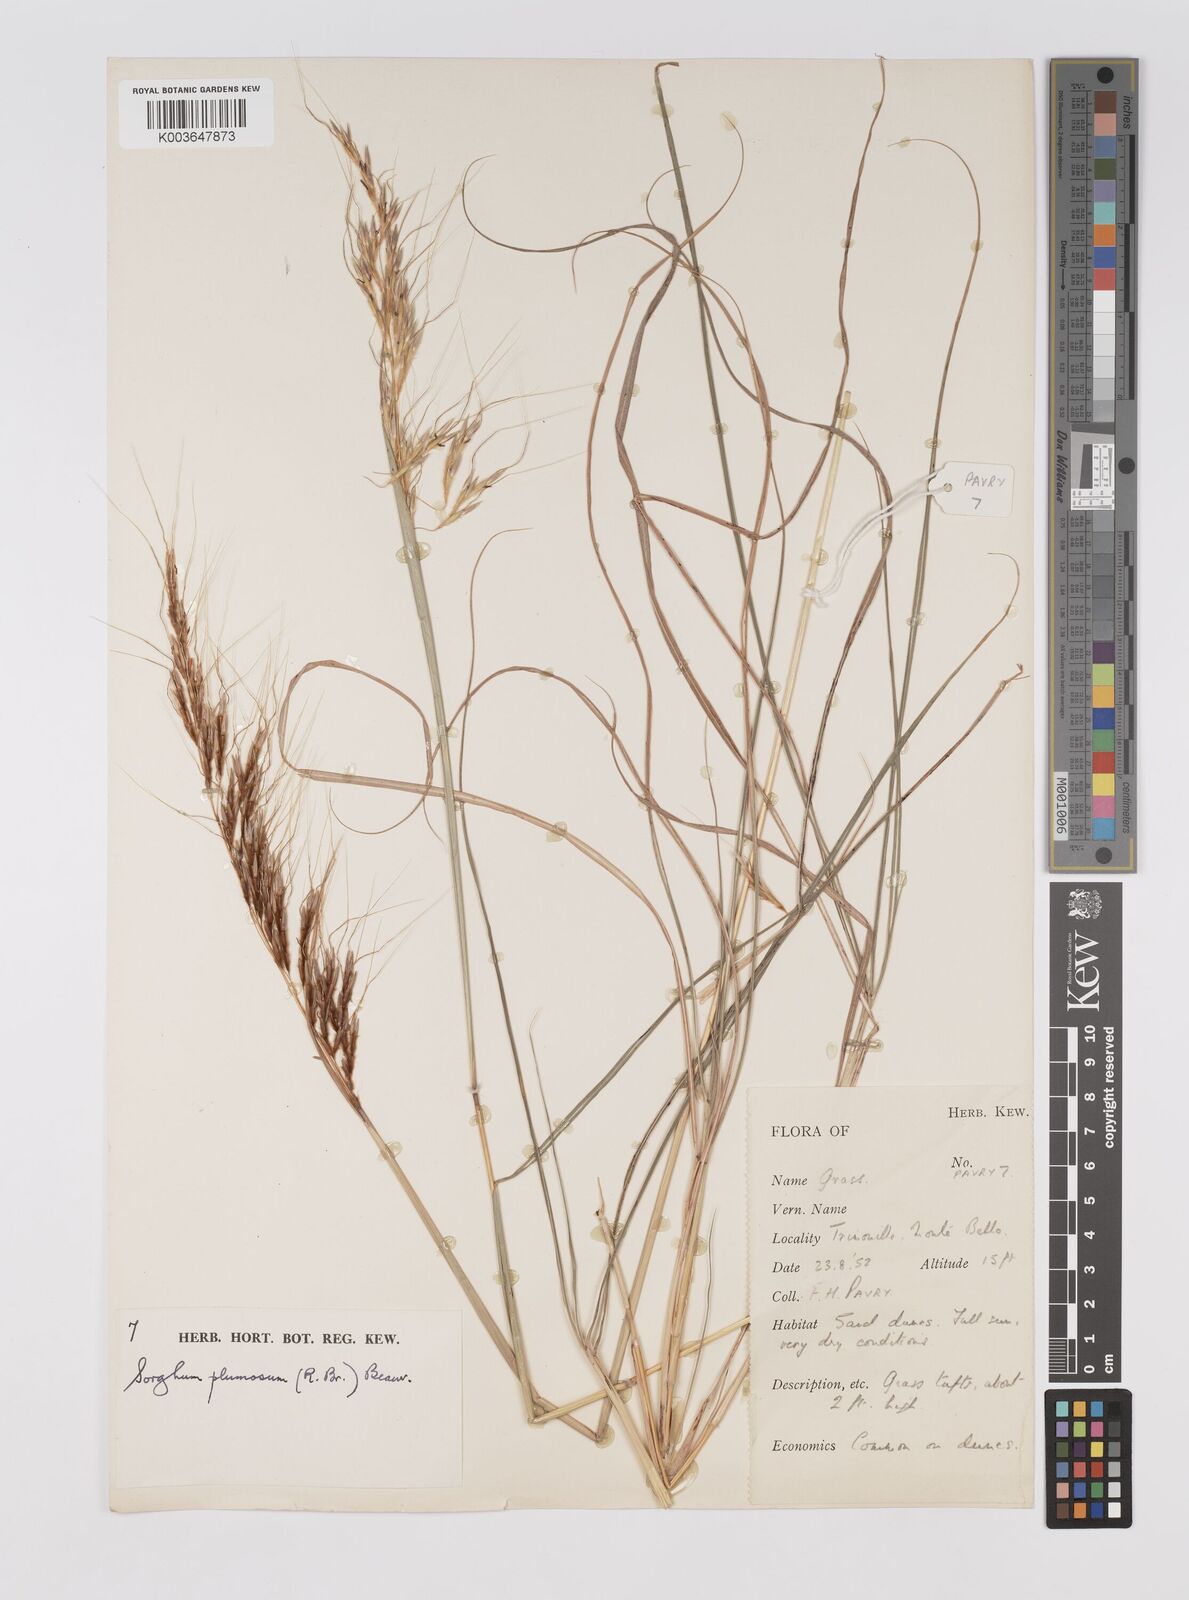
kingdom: Plantae
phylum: Tracheophyta
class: Liliopsida
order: Poales
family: Poaceae
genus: Sarga
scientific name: Sarga plumosa
